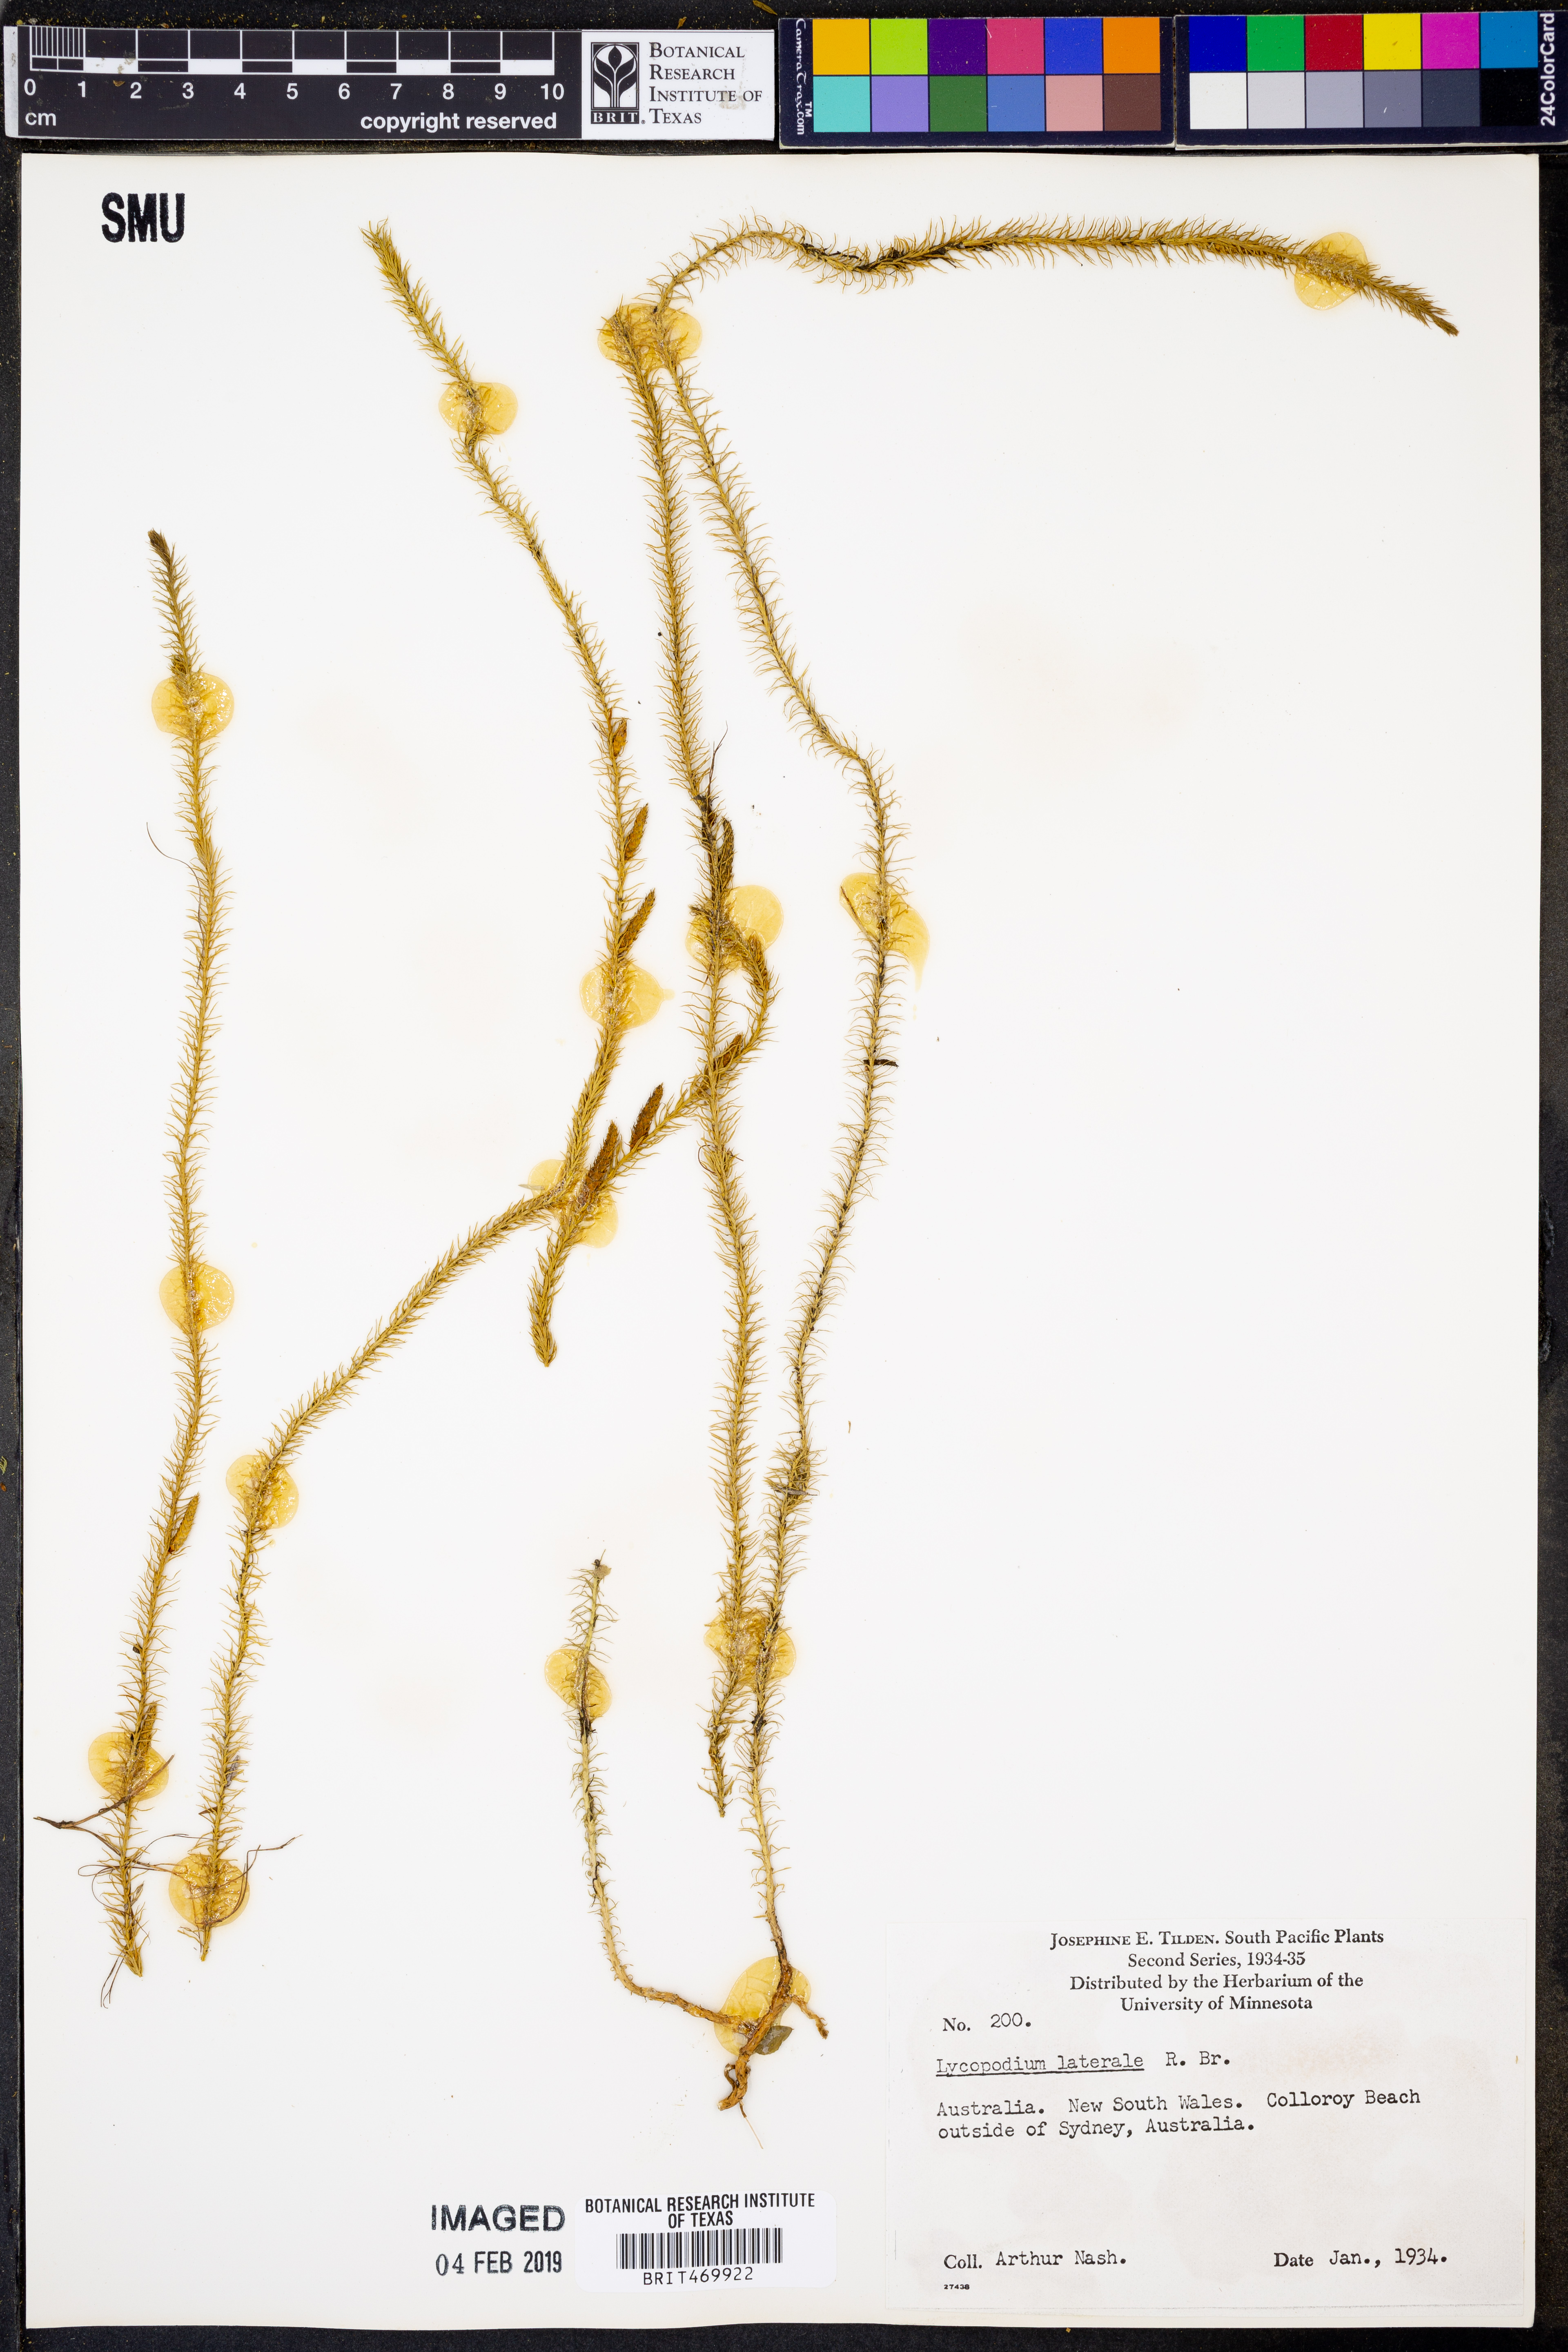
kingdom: Plantae
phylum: Tracheophyta
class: Lycopodiopsida
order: Lycopodiales
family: Lycopodiaceae
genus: Lateristachys
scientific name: Lateristachys lateralis
